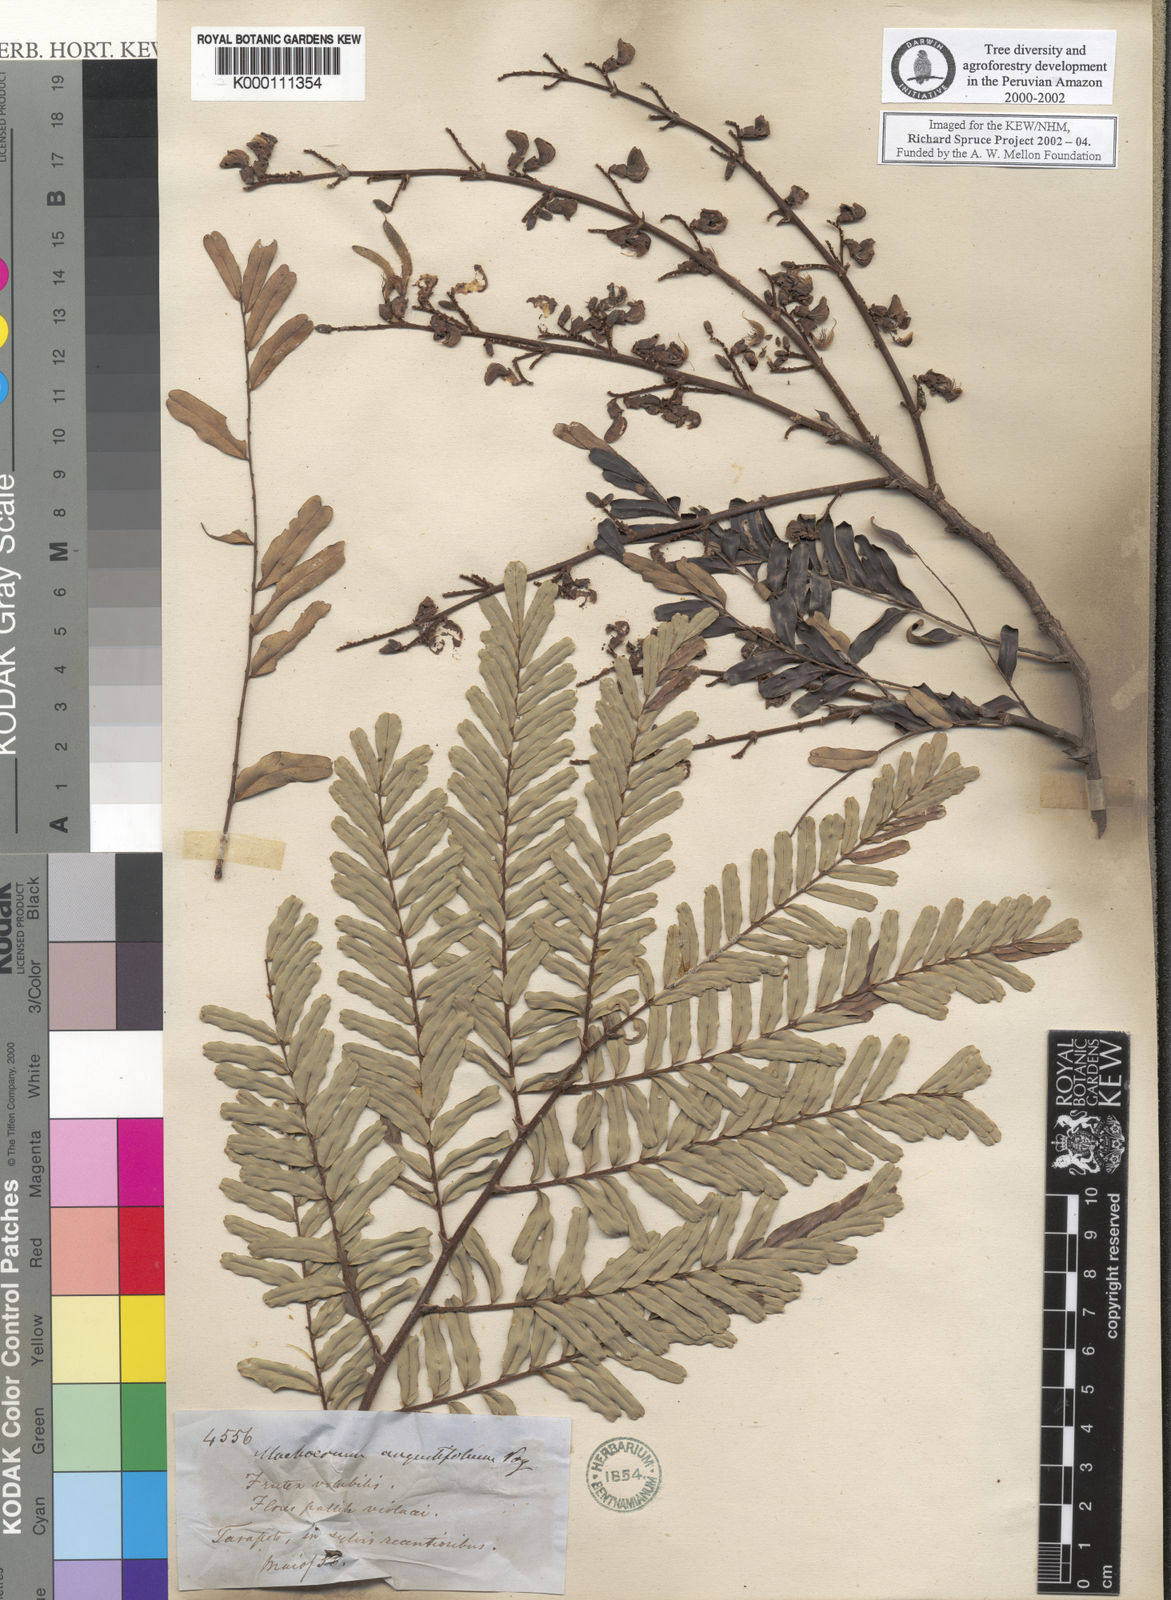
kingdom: Plantae
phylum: Tracheophyta
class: Magnoliopsida
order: Fabales
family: Fabaceae
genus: Machaerium
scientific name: Machaerium isadelphum
